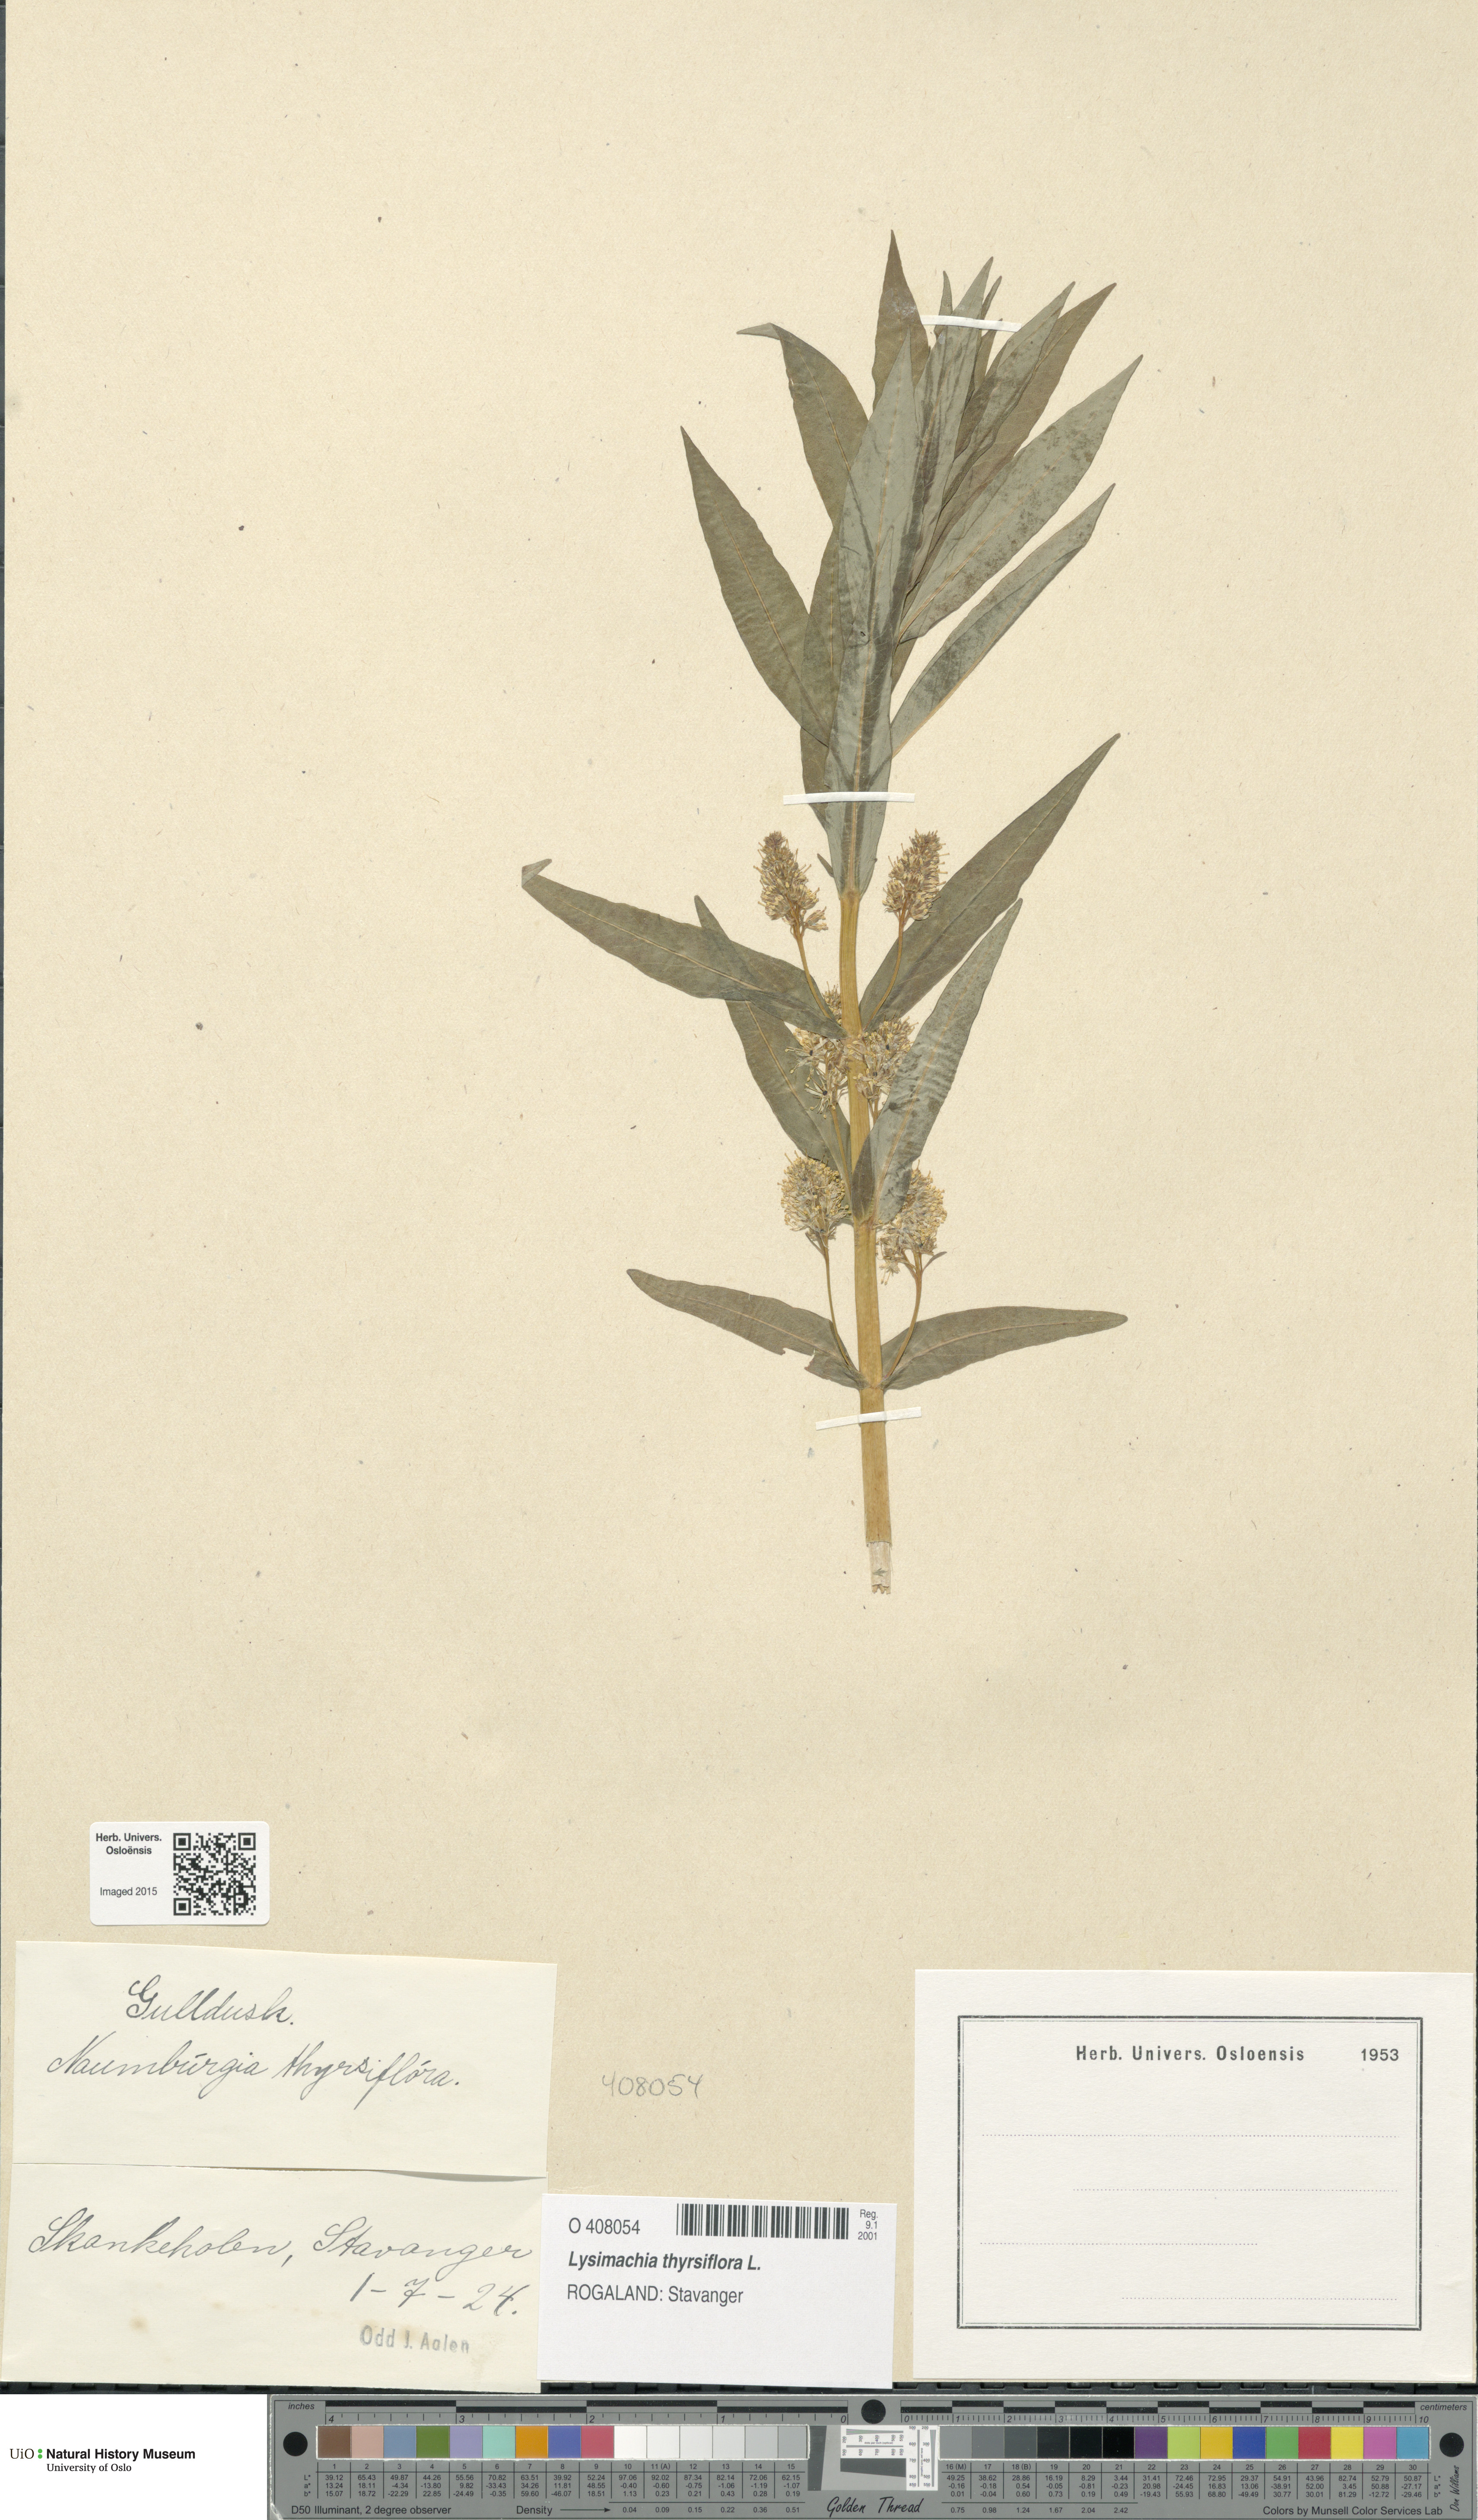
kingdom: Plantae
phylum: Tracheophyta
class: Magnoliopsida
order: Ericales
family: Primulaceae
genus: Lysimachia
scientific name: Lysimachia thyrsiflora
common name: Tufted loosestrife
